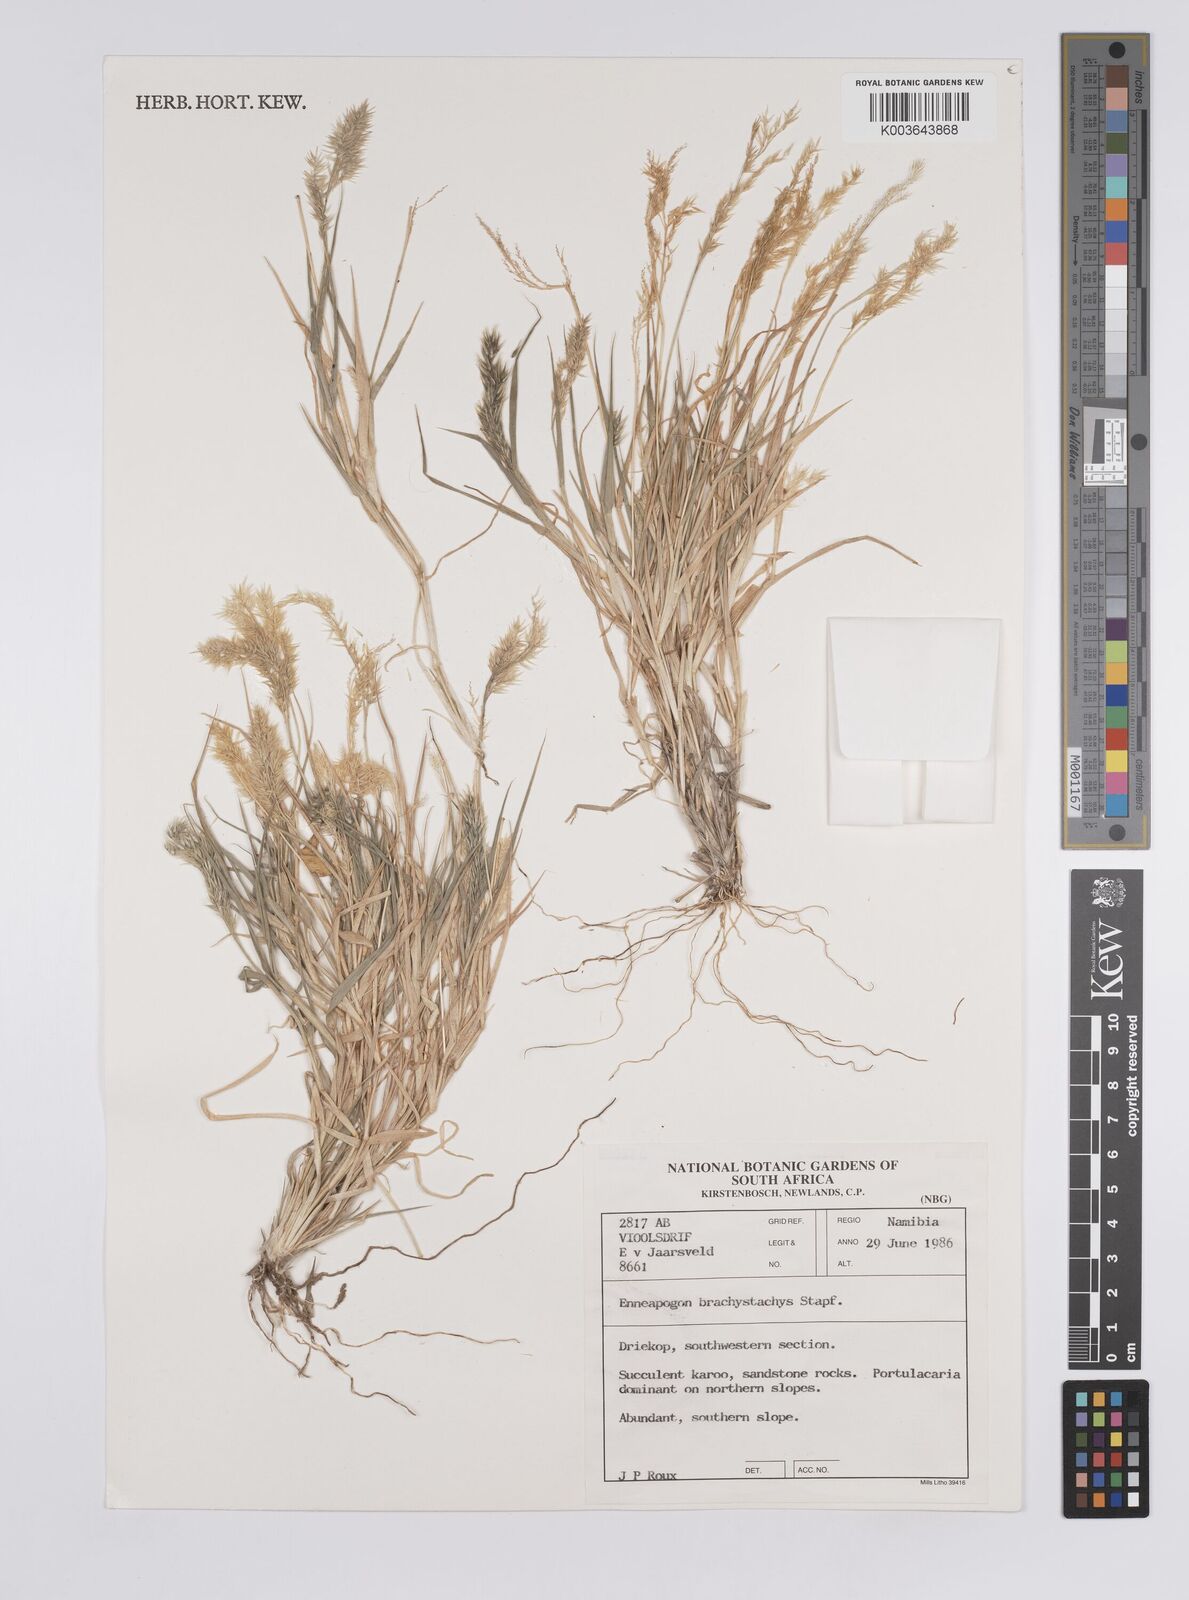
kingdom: Plantae
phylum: Tracheophyta
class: Liliopsida
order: Poales
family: Poaceae
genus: Enneapogon
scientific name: Enneapogon desvauxii
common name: Feather pappus grass
